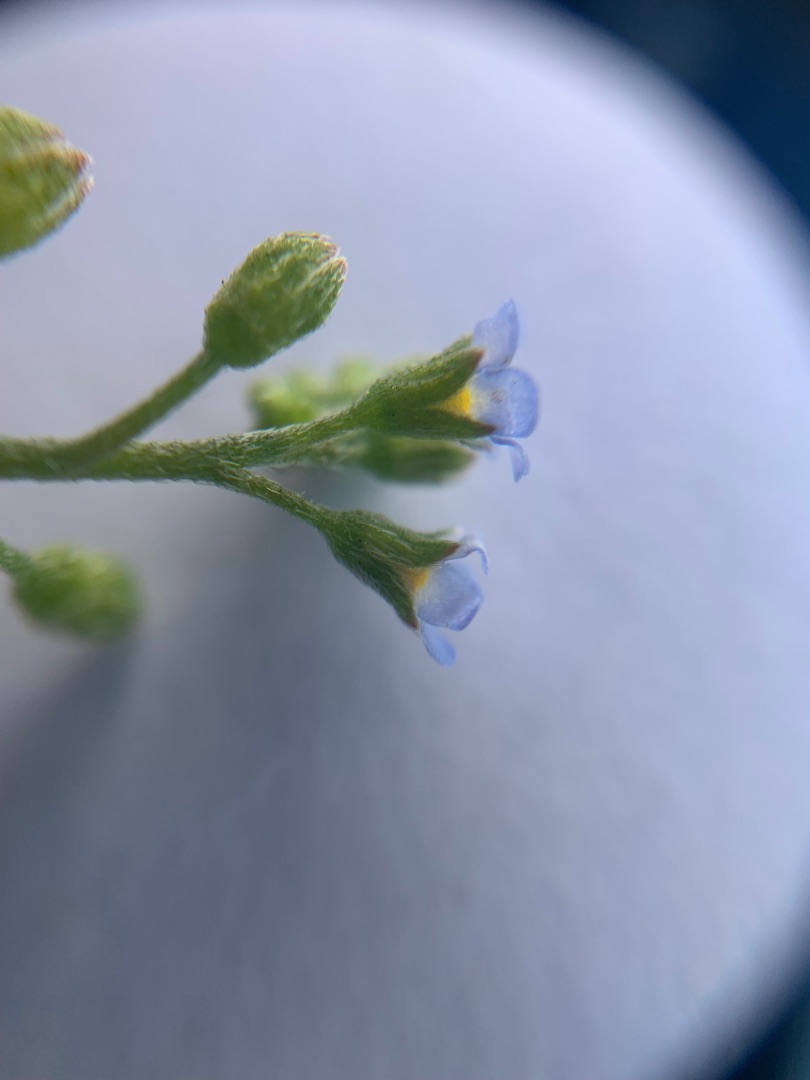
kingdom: Plantae
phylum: Tracheophyta
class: Magnoliopsida
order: Boraginales
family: Boraginaceae
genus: Myosotis
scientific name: Myosotis laxa
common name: Sump-forglemmigej (underart)
